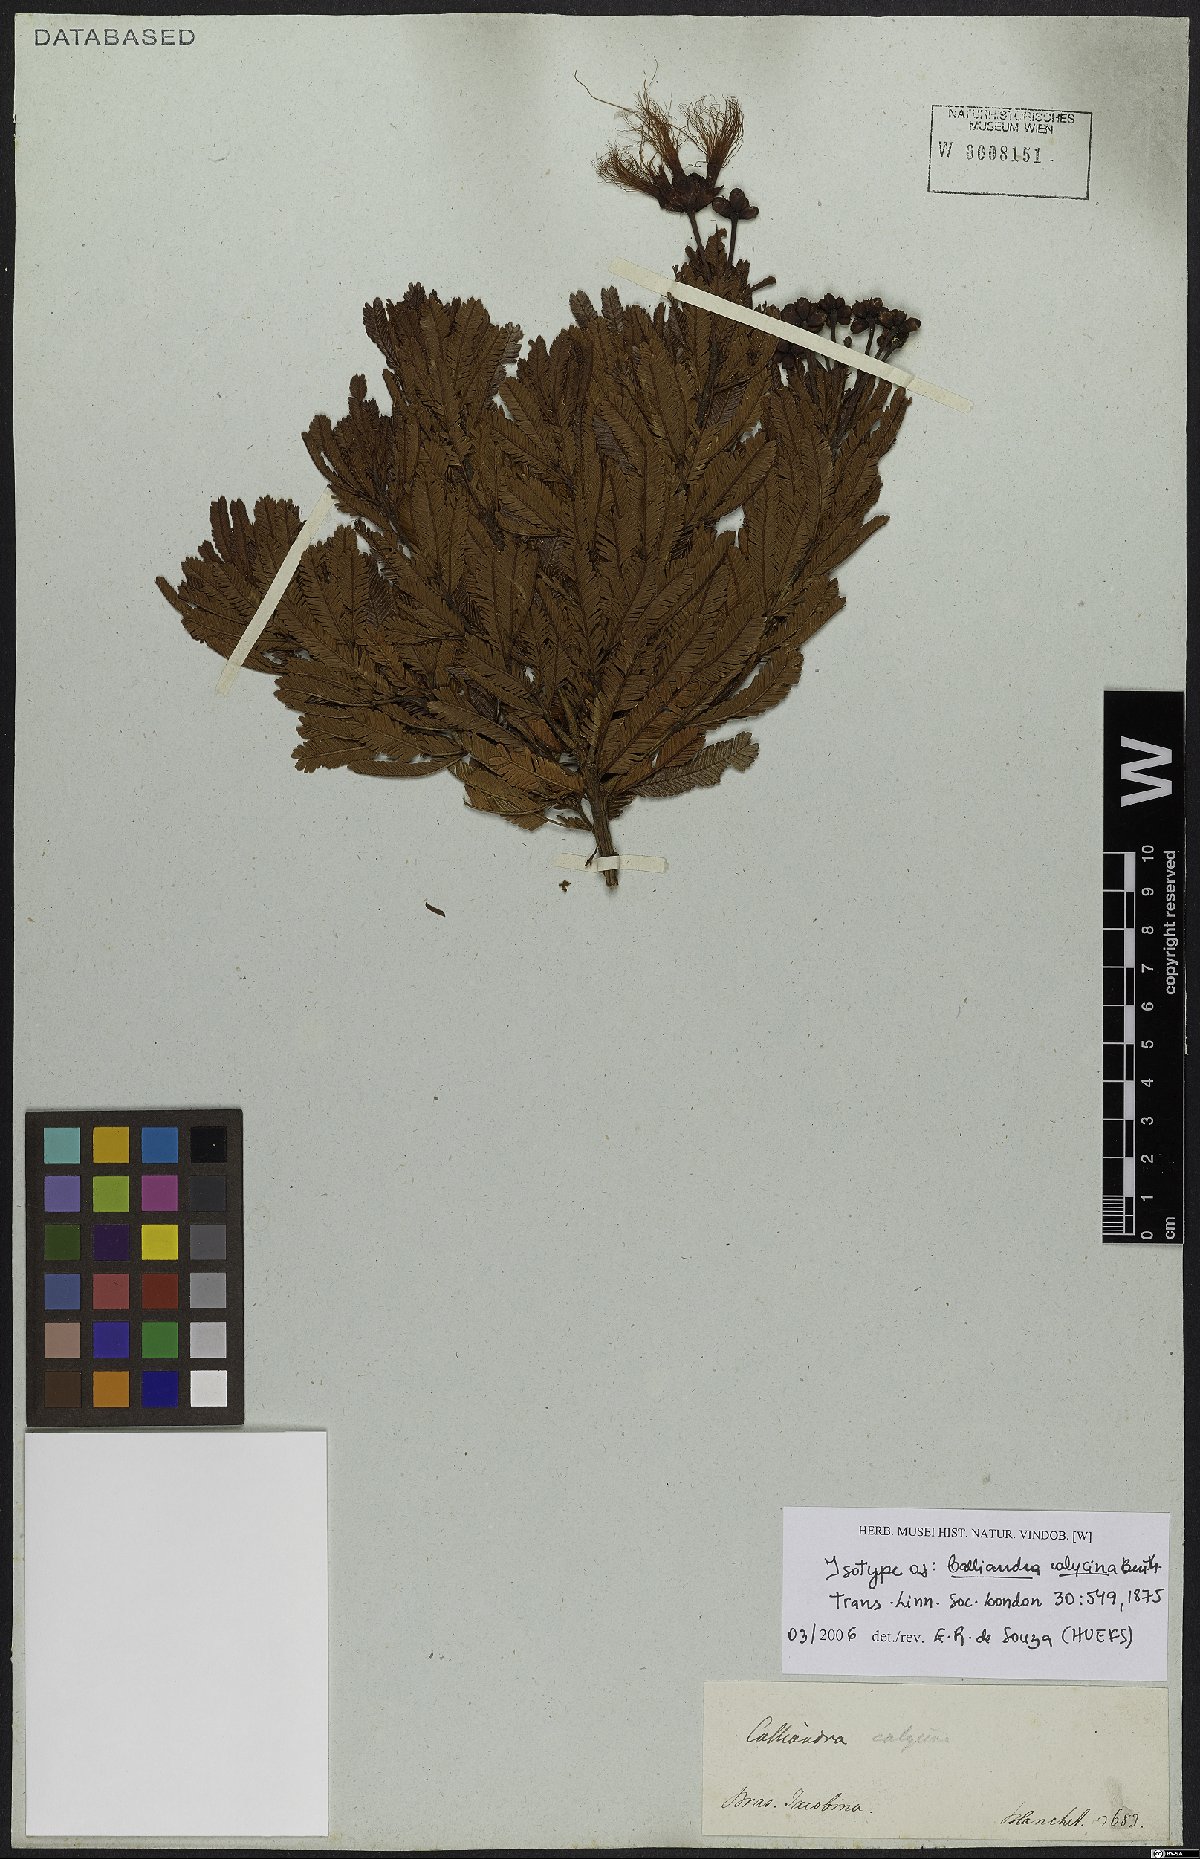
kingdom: Plantae
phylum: Tracheophyta
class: Magnoliopsida
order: Fabales
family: Fabaceae
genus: Calliandra
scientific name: Calliandra calycina
